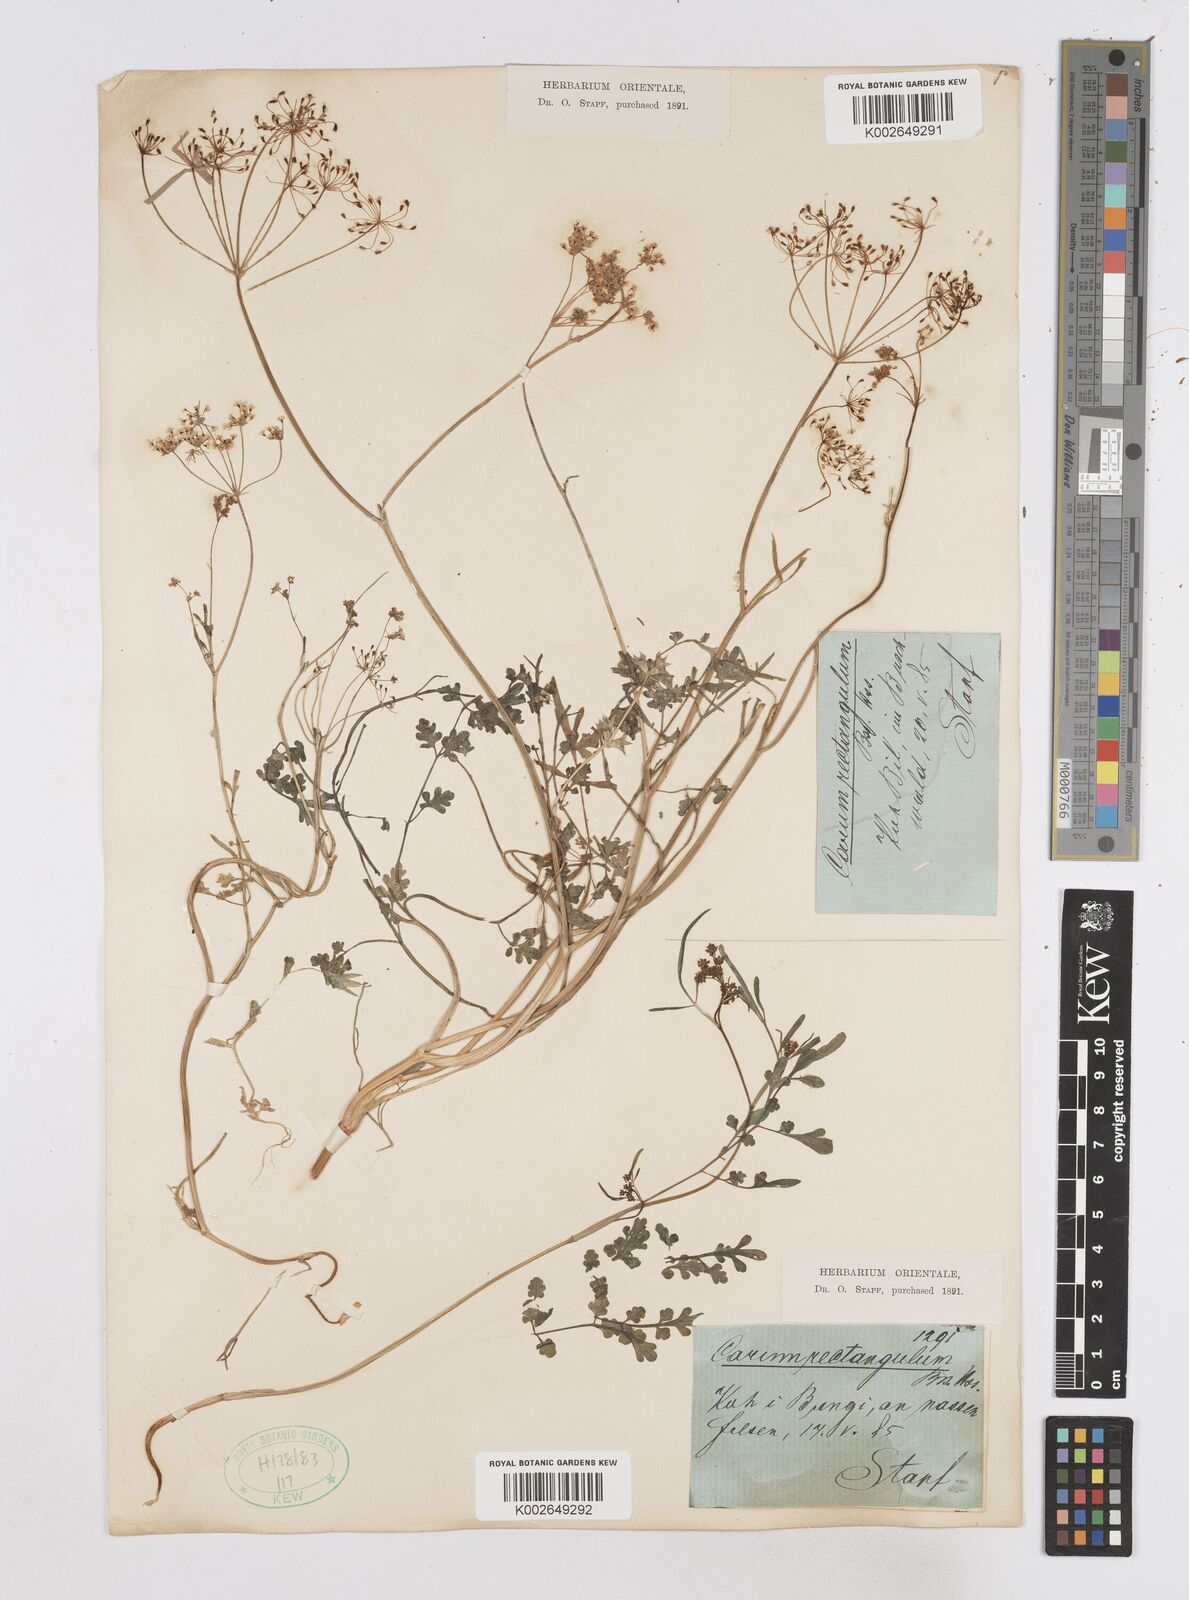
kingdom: Plantae
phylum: Tracheophyta
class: Magnoliopsida
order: Apiales
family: Apiaceae
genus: Bunium
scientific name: Bunium rectangulum
